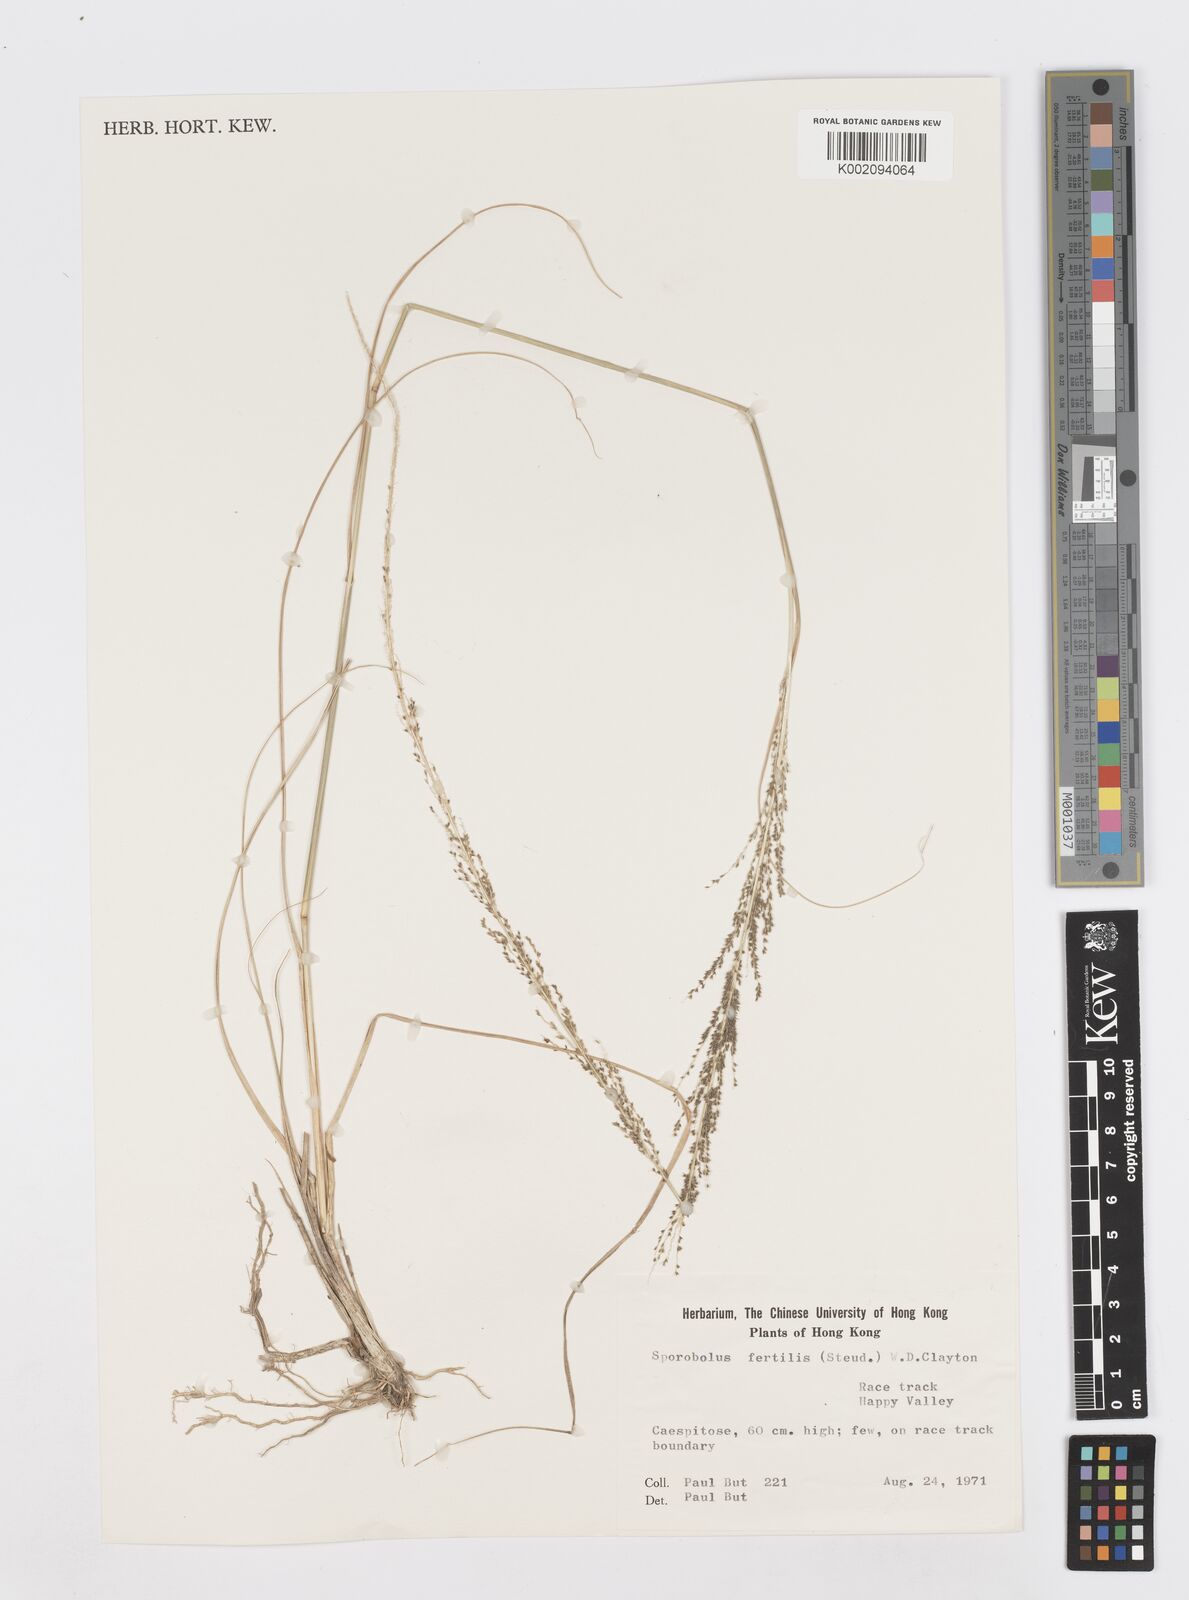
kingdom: Plantae
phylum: Tracheophyta
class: Liliopsida
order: Poales
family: Poaceae
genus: Sporobolus
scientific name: Sporobolus fertilis
